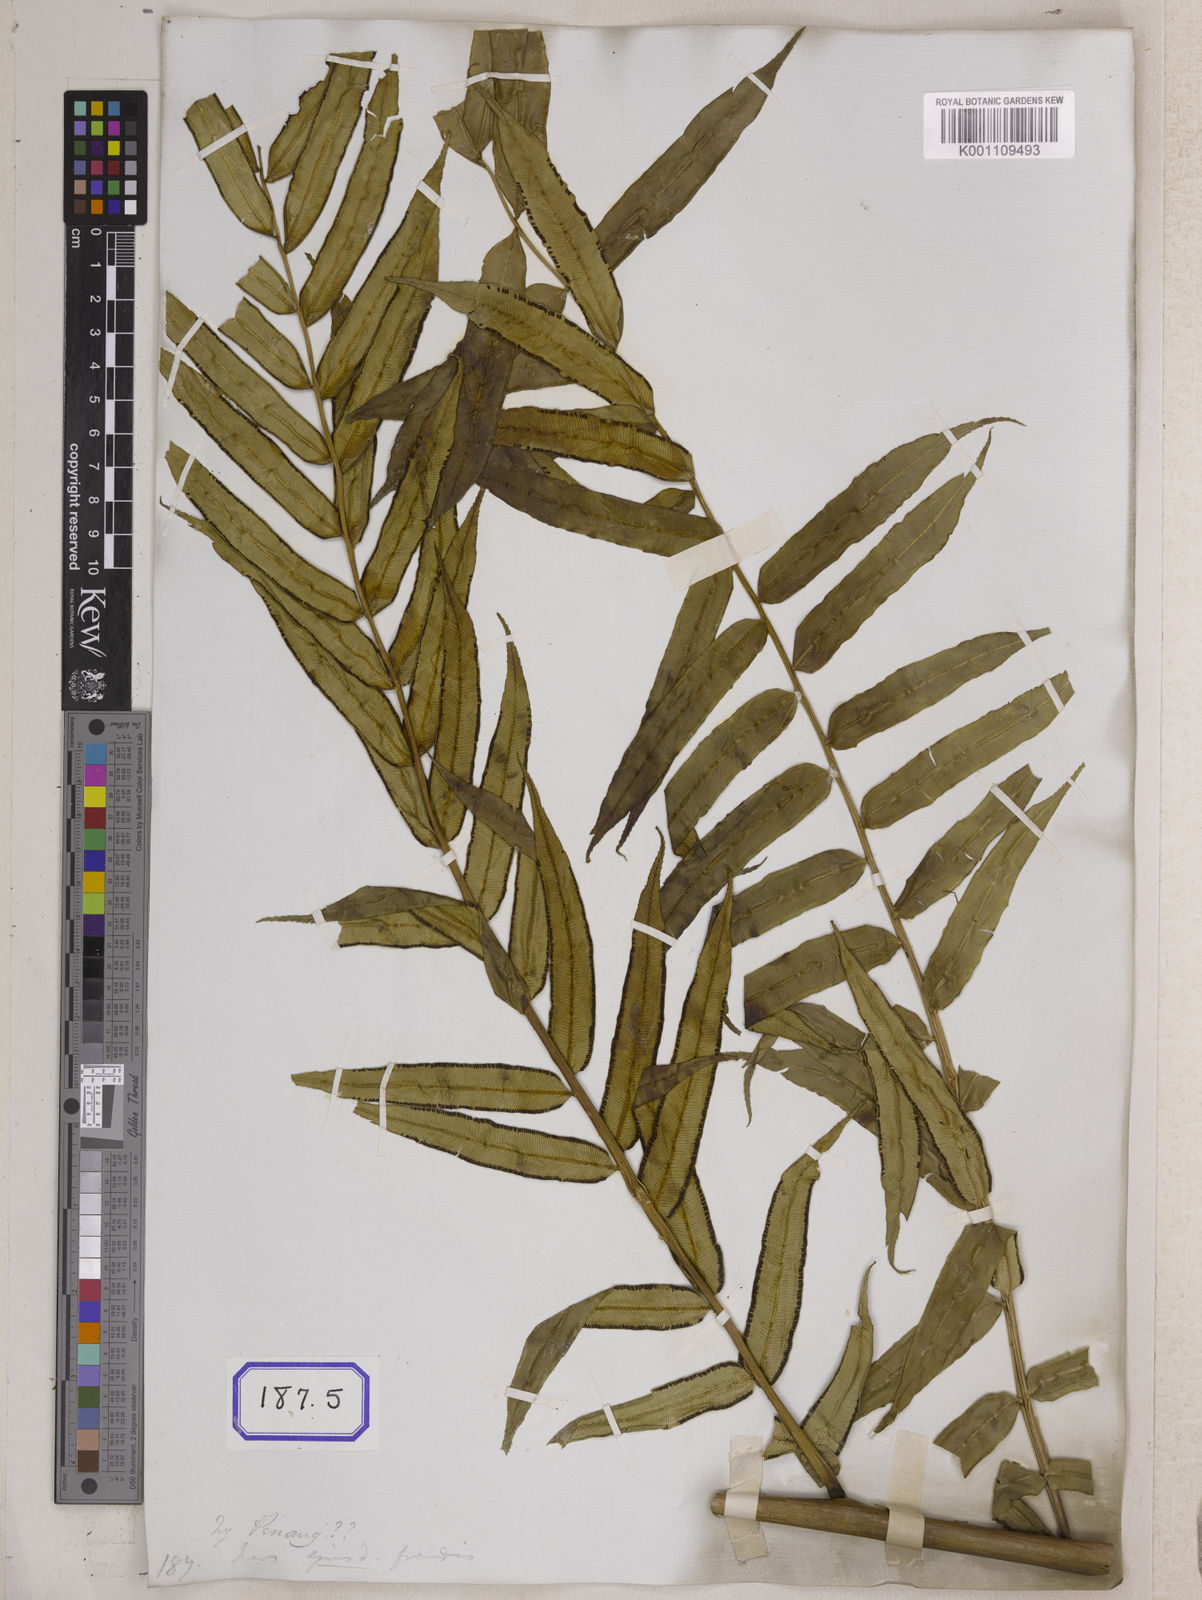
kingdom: Plantae
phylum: Tracheophyta
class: Polypodiopsida
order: Marattiales
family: Marattiaceae
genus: Angiopteris
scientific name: Angiopteris crassipes
